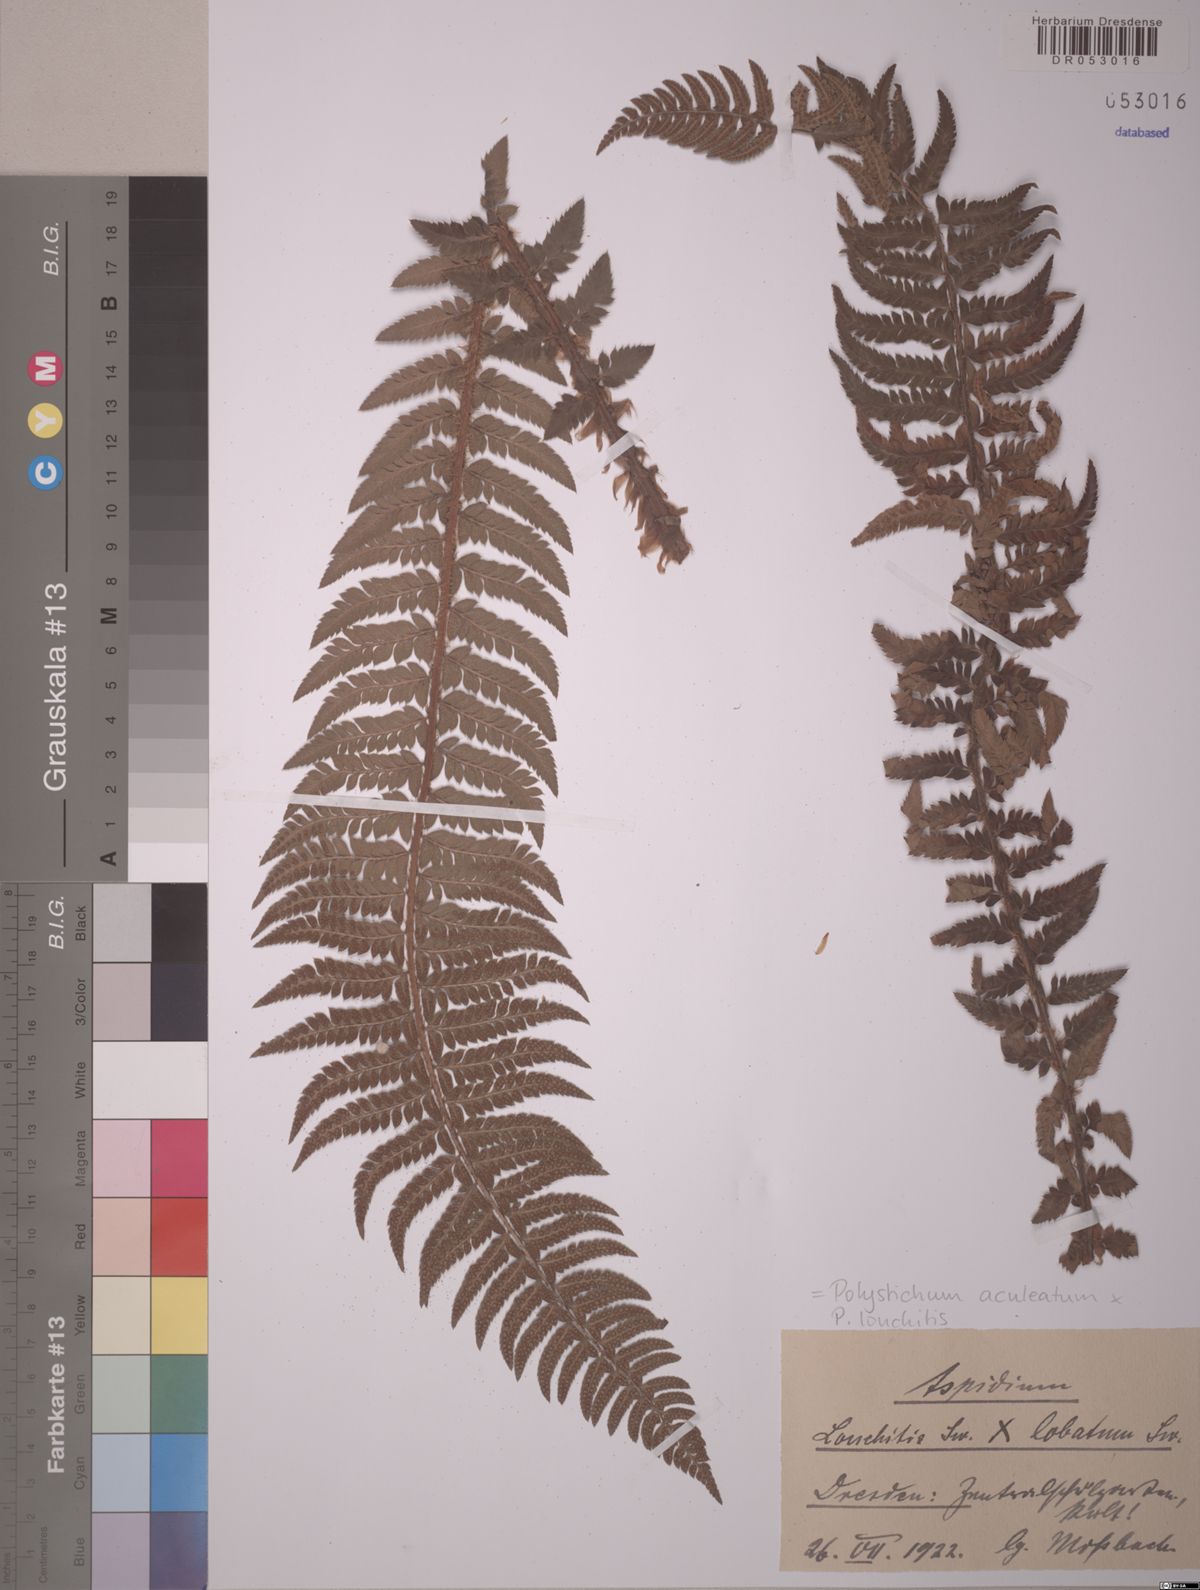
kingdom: Plantae
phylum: Tracheophyta
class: Polypodiopsida
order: Polypodiales
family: Dryopteridaceae
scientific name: Dryopteridaceae
